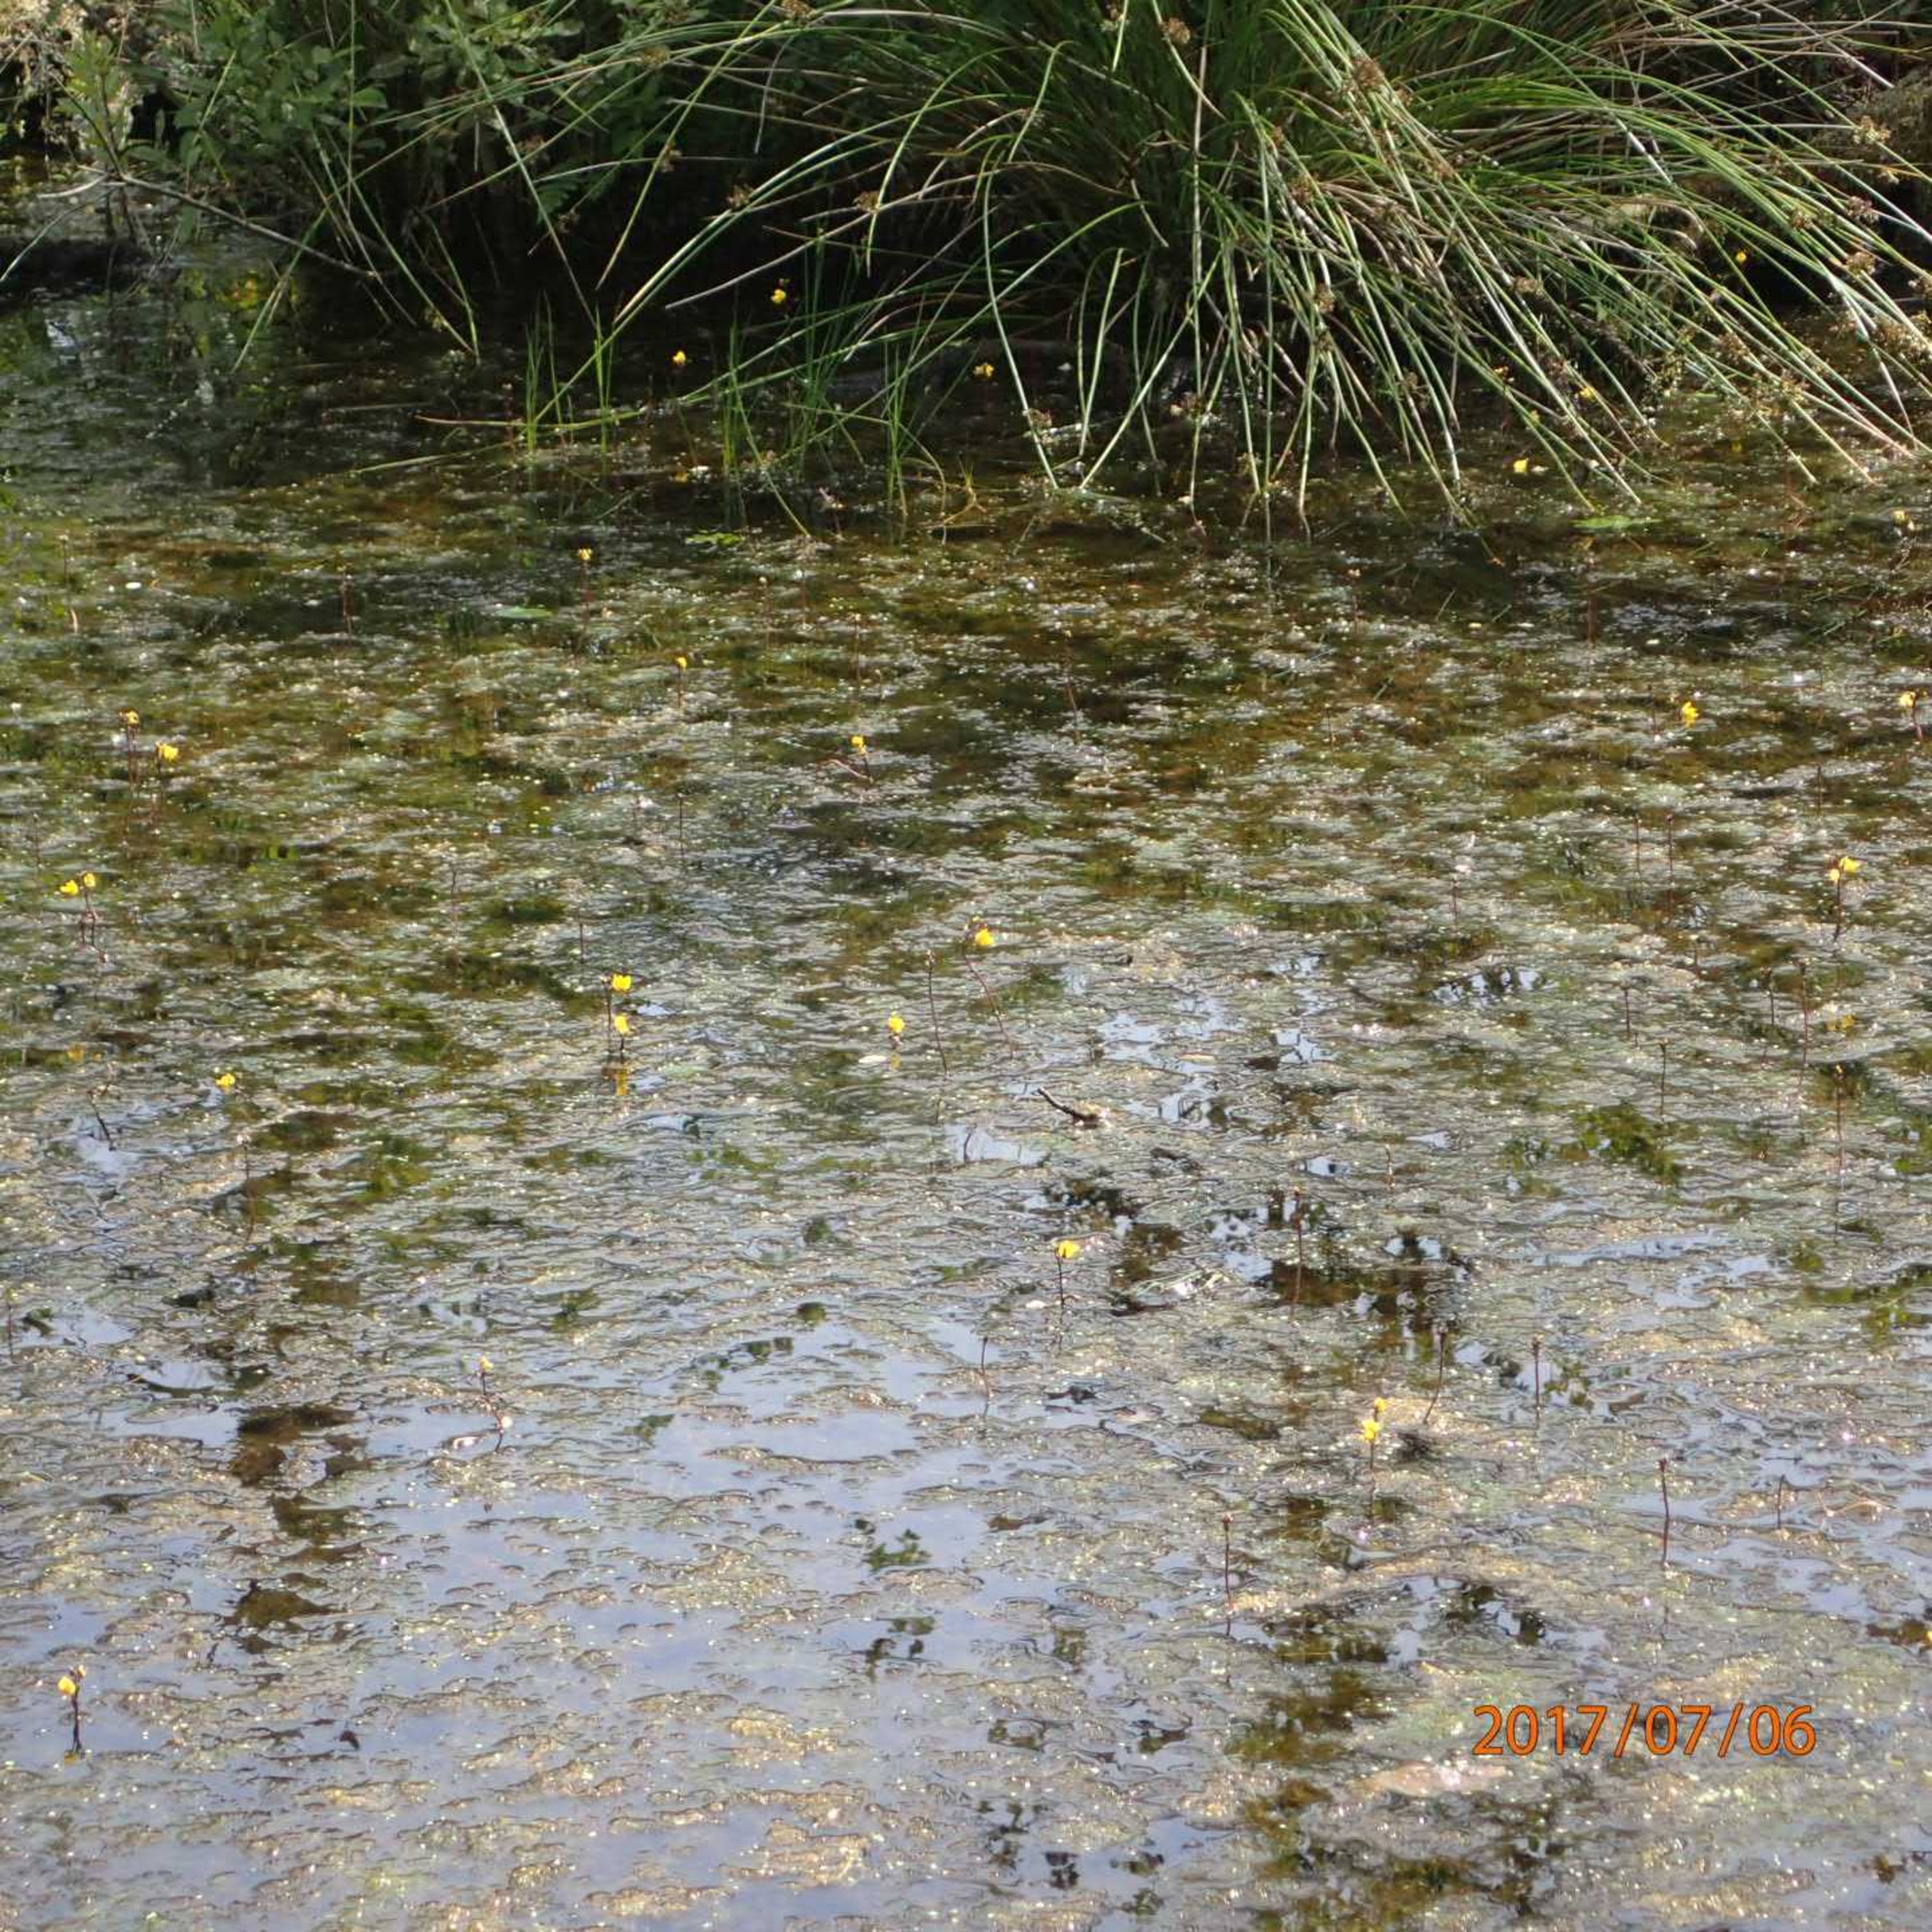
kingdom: Plantae
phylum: Tracheophyta
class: Magnoliopsida
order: Lamiales
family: Lentibulariaceae
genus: Utricularia
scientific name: Utricularia vulgaris
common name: Almindelig blærerod
